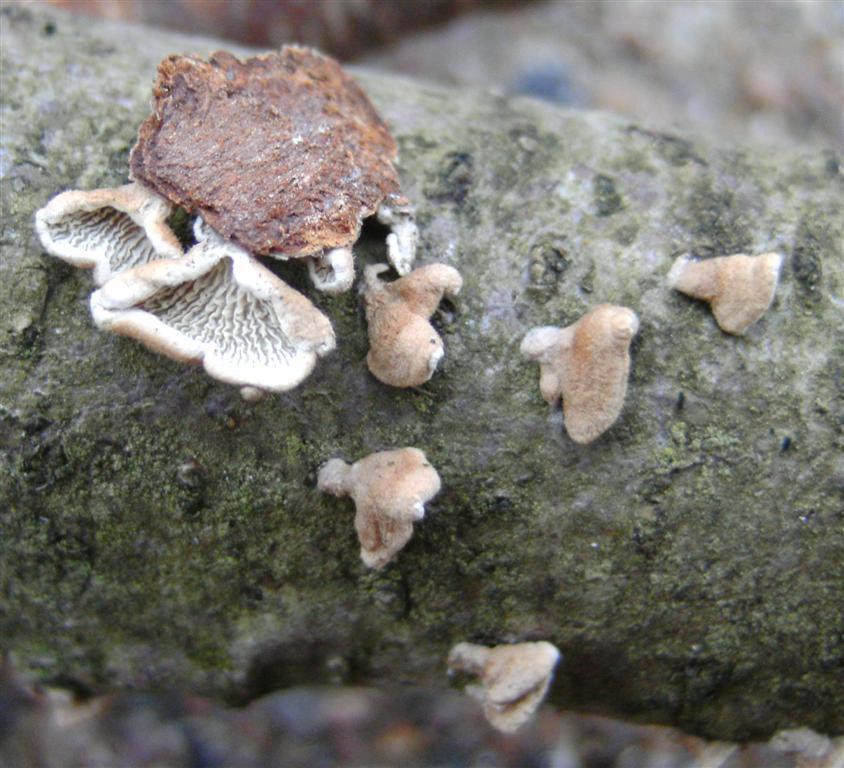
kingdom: Fungi
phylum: Basidiomycota
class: Agaricomycetes
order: Amylocorticiales
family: Amylocorticiaceae
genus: Plicaturopsis
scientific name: Plicaturopsis crispa
